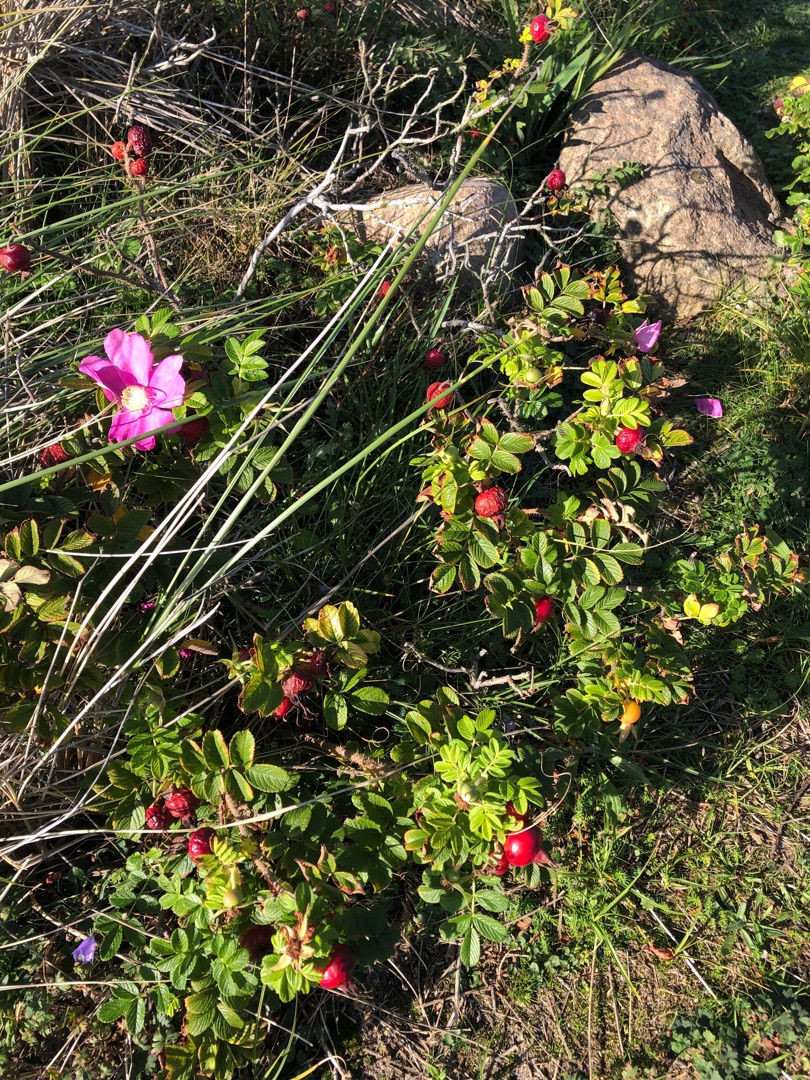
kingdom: Plantae
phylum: Tracheophyta
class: Magnoliopsida
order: Rosales
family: Rosaceae
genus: Rosa
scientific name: Rosa rugosa
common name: Rynket rose
